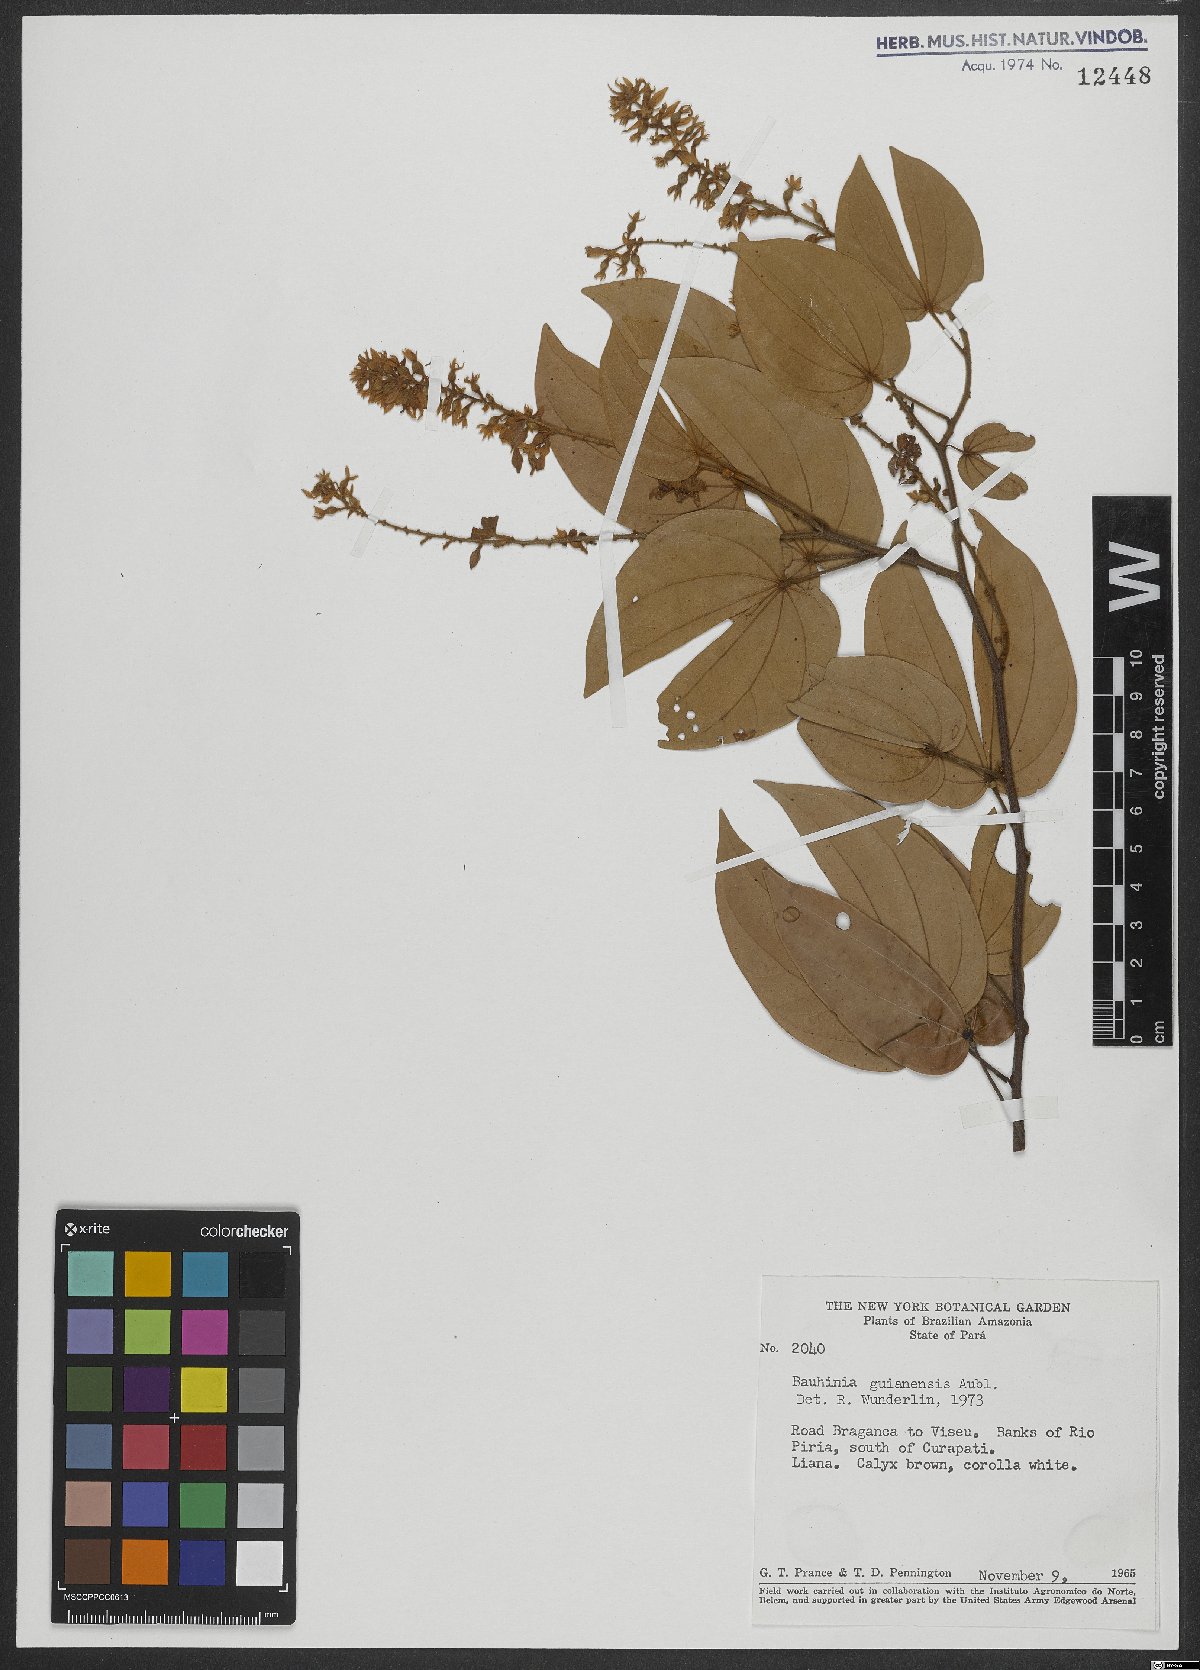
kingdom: Plantae
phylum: Tracheophyta
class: Magnoliopsida
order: Fabales
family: Fabaceae
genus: Schnella
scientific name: Schnella guianensis
